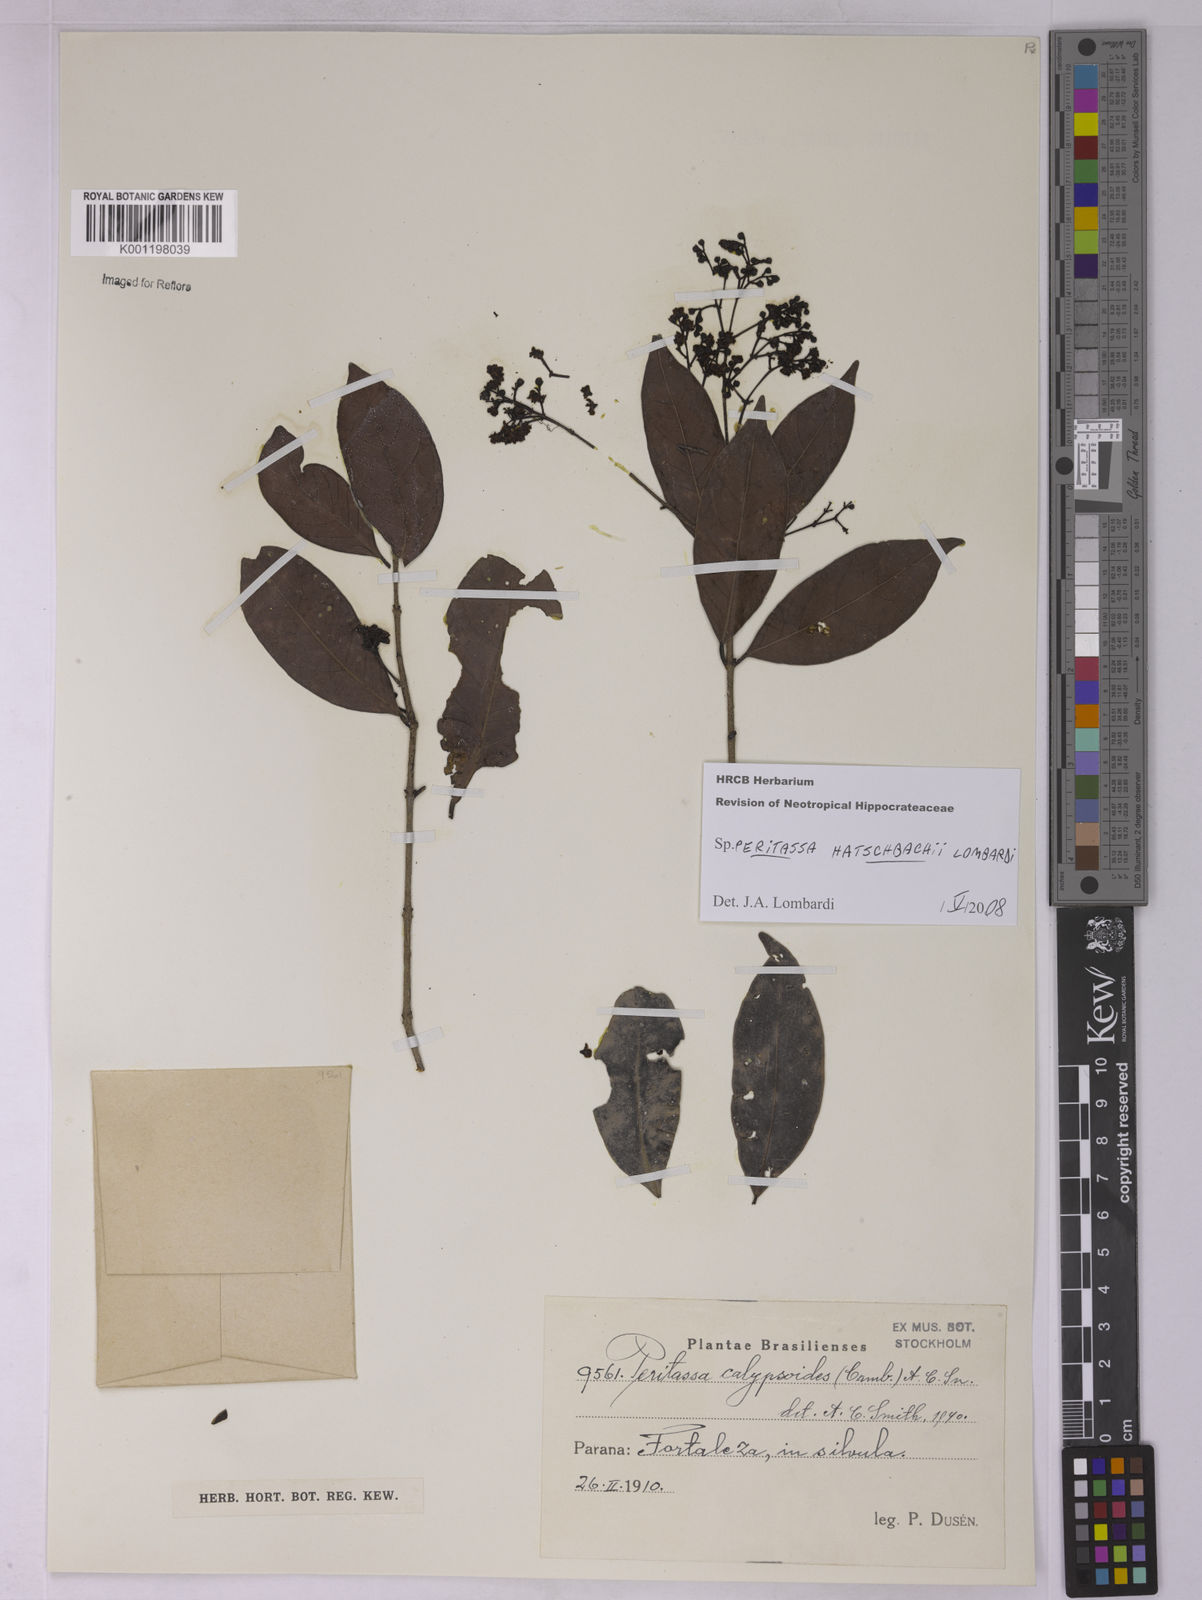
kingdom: Plantae
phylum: Tracheophyta
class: Magnoliopsida
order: Celastrales
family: Celastraceae
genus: Peritassa
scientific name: Peritassa hatschbachii
